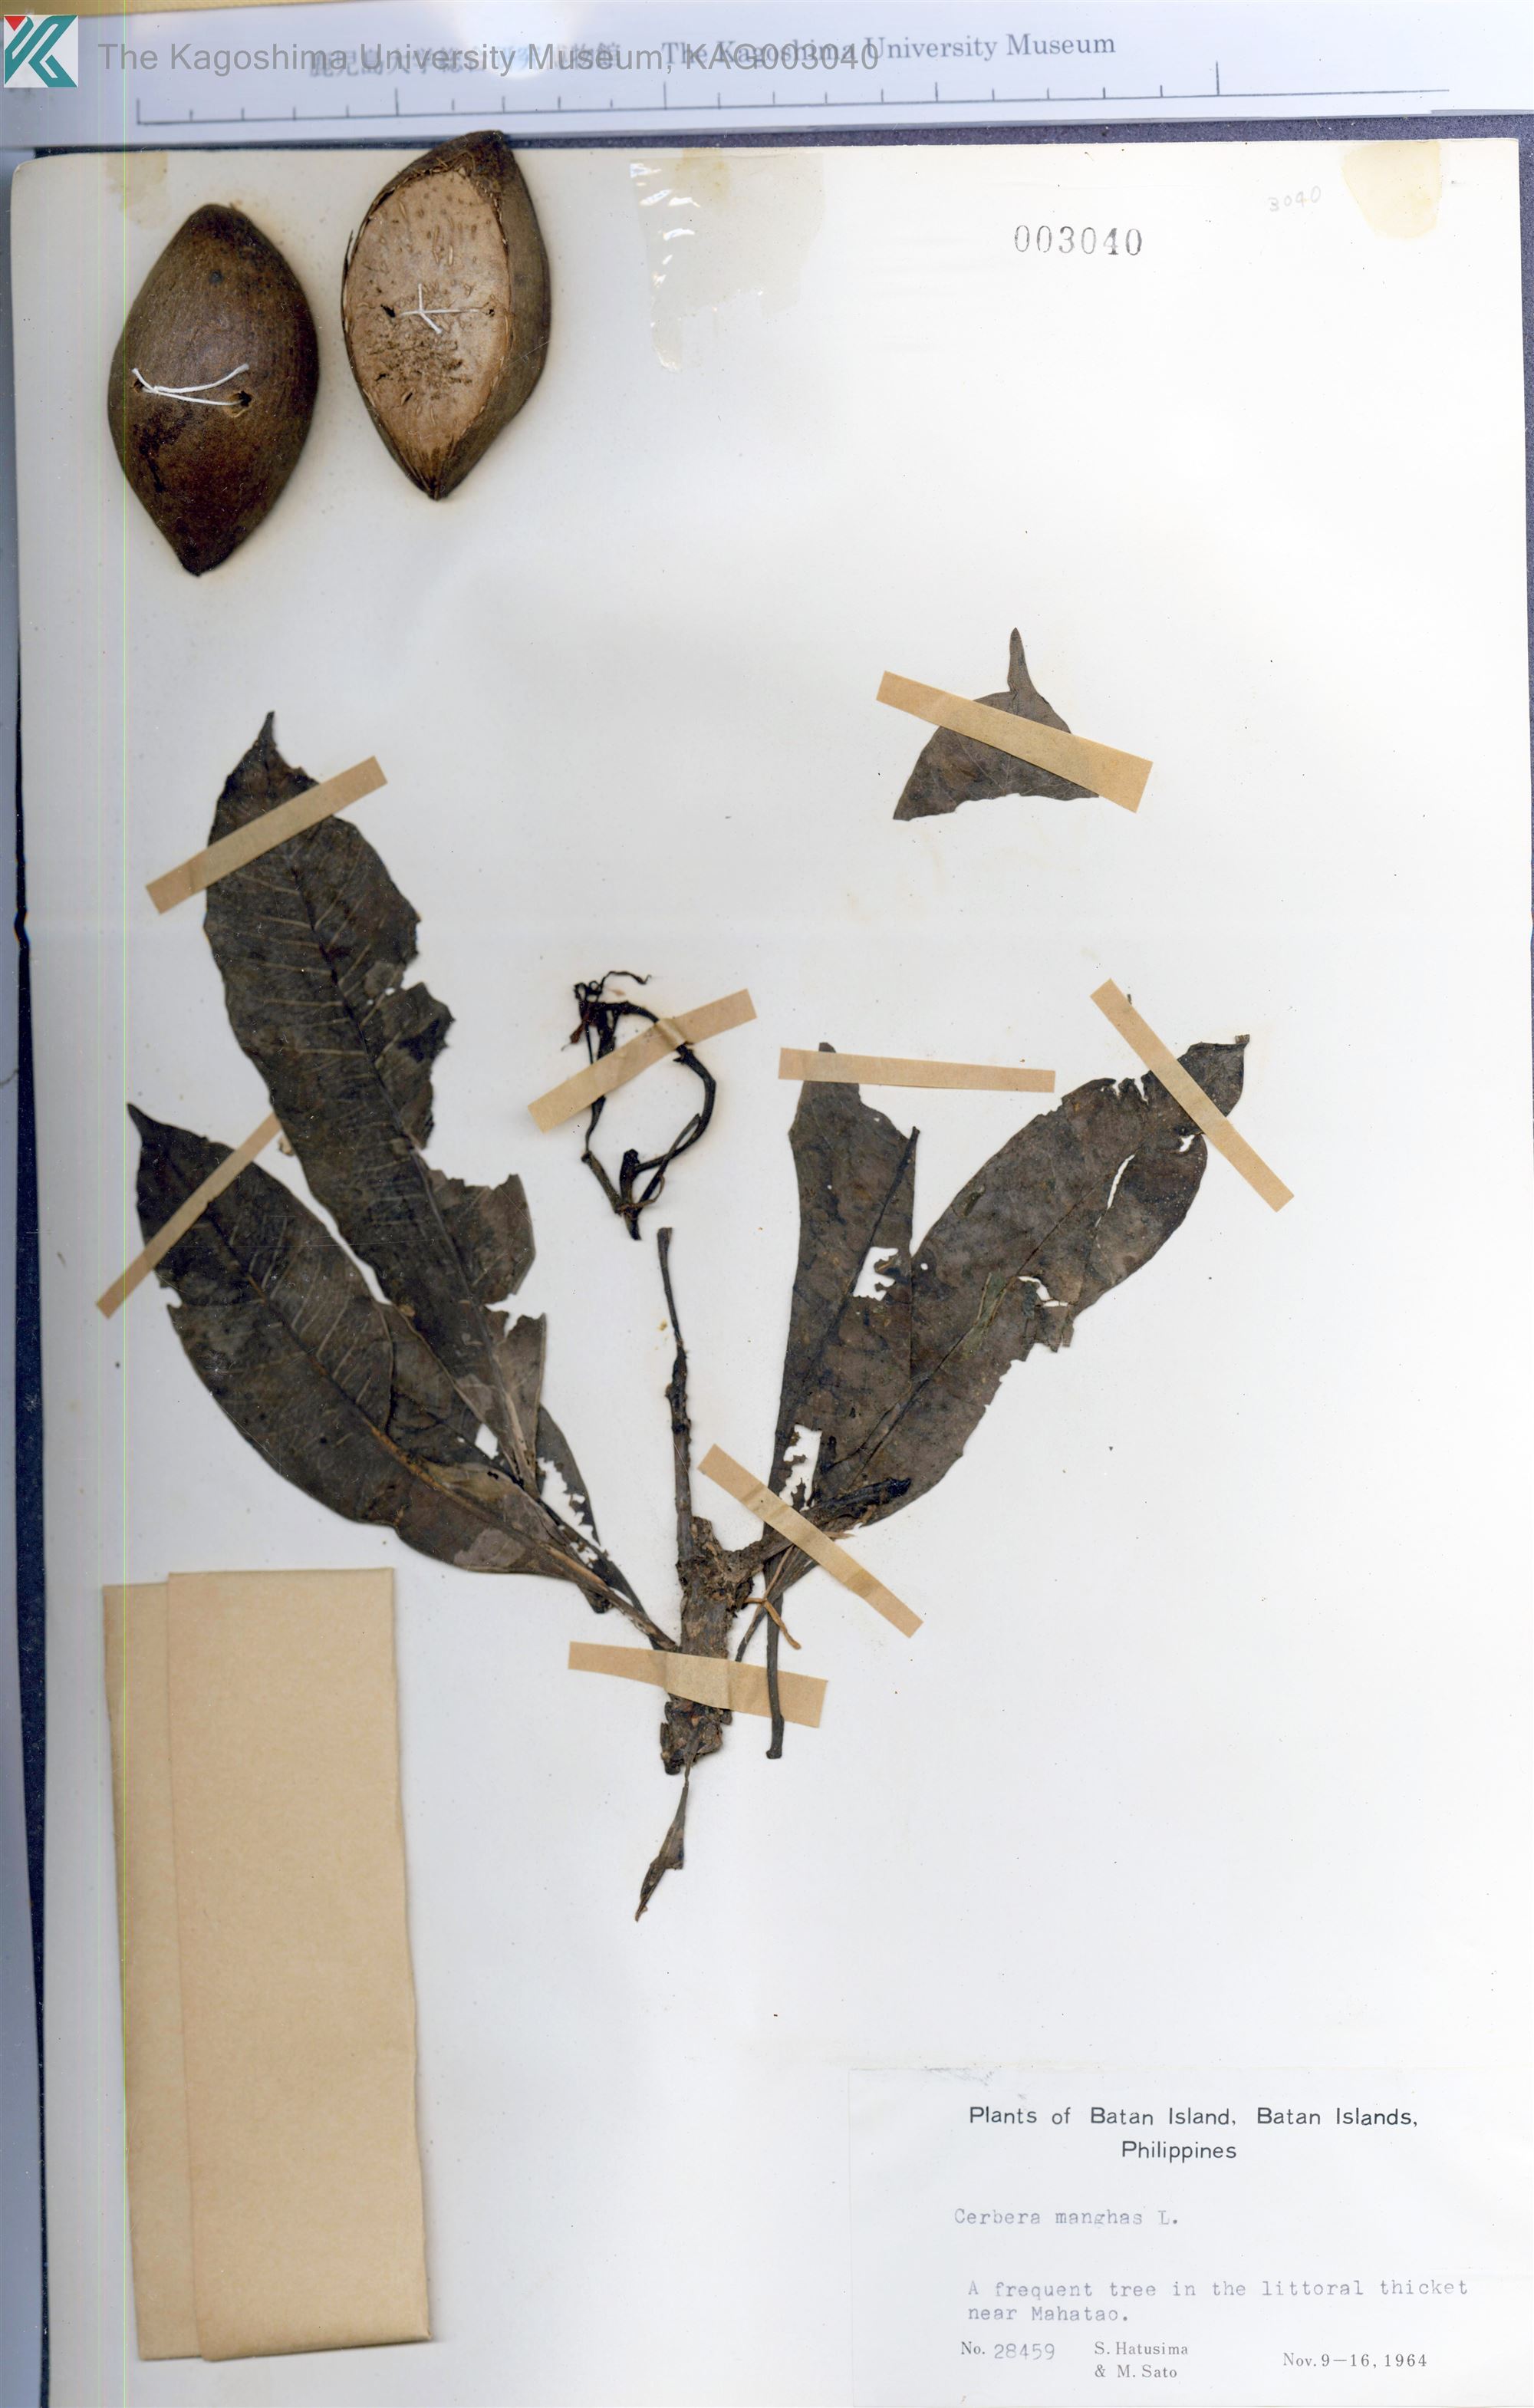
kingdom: Plantae
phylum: Tracheophyta
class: Magnoliopsida
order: Gentianales
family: Apocynaceae
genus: Cerbera
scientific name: Cerbera manghas
